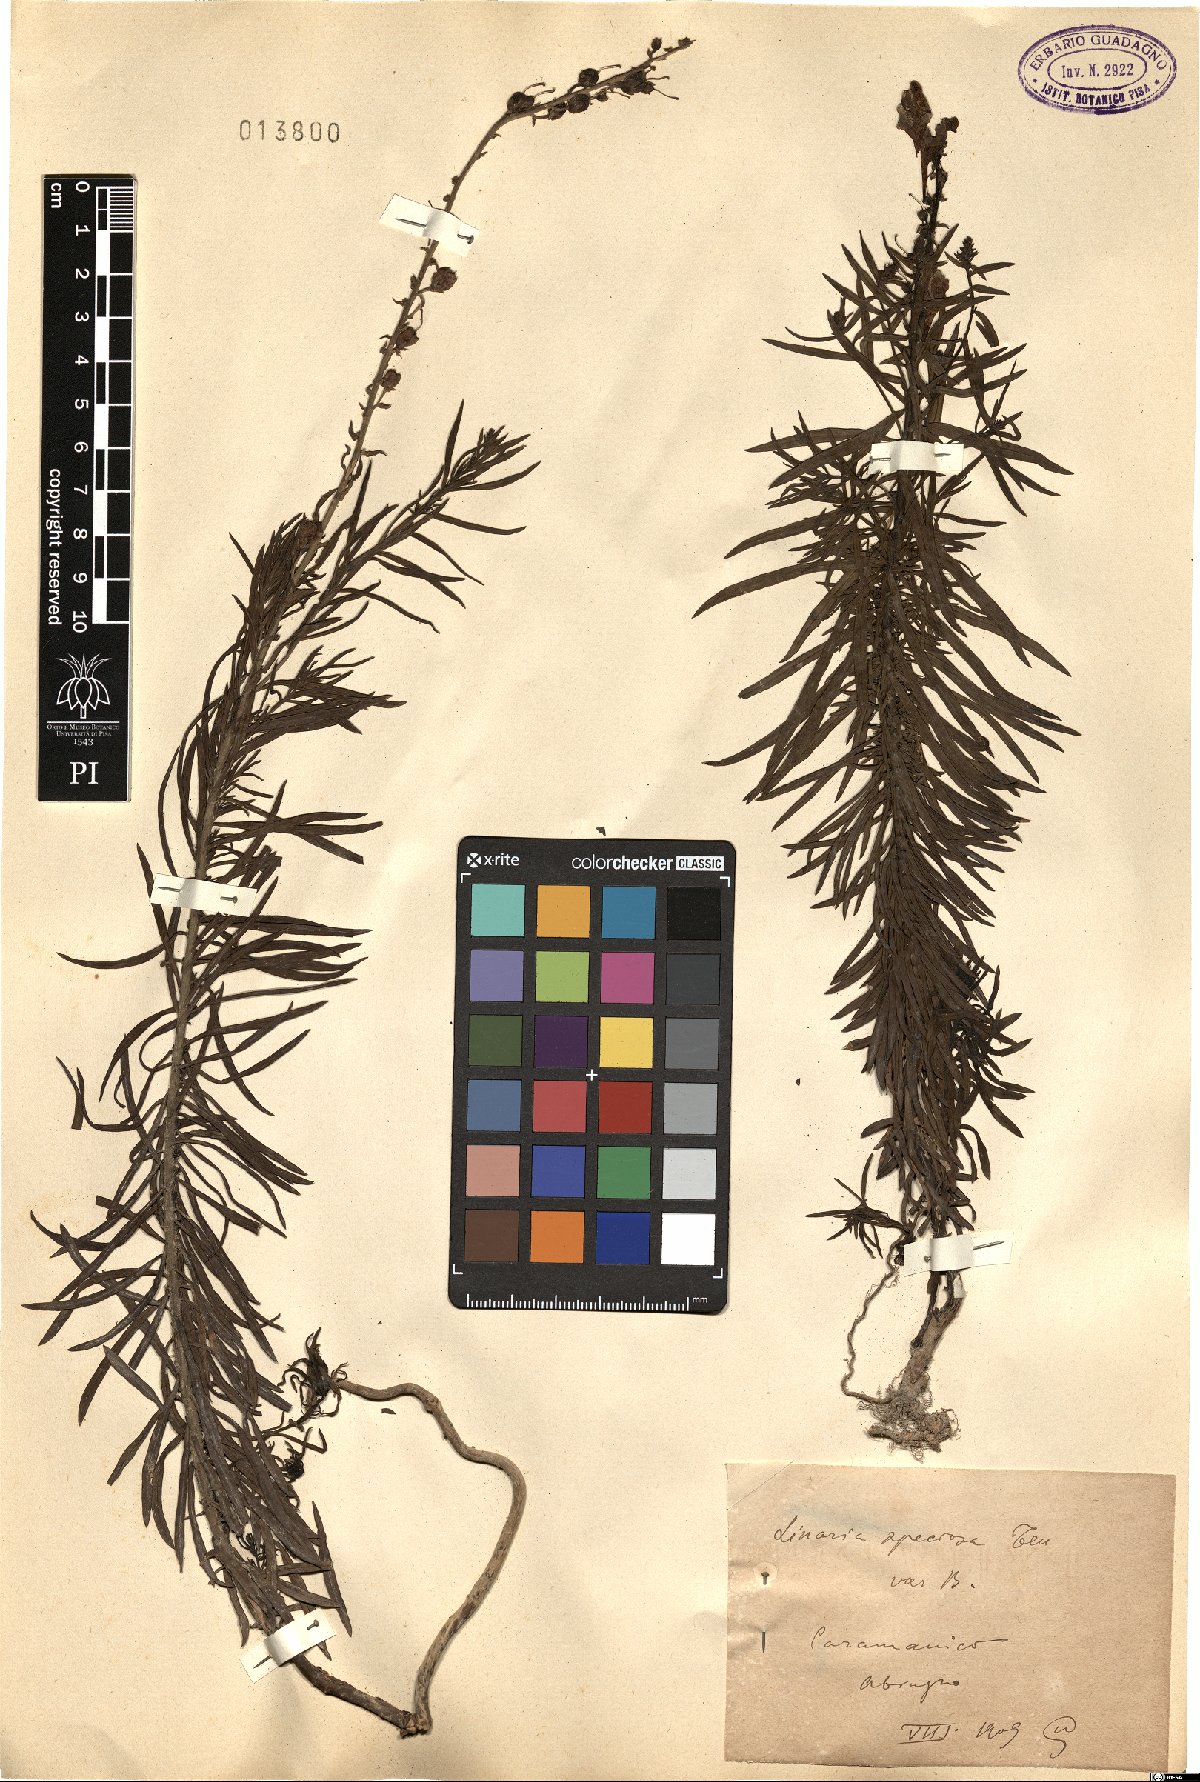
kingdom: Plantae
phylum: Tracheophyta
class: Magnoliopsida
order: Lamiales
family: Plantaginaceae
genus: Linaria
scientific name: Linaria vulgaris
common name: Butter and eggs
